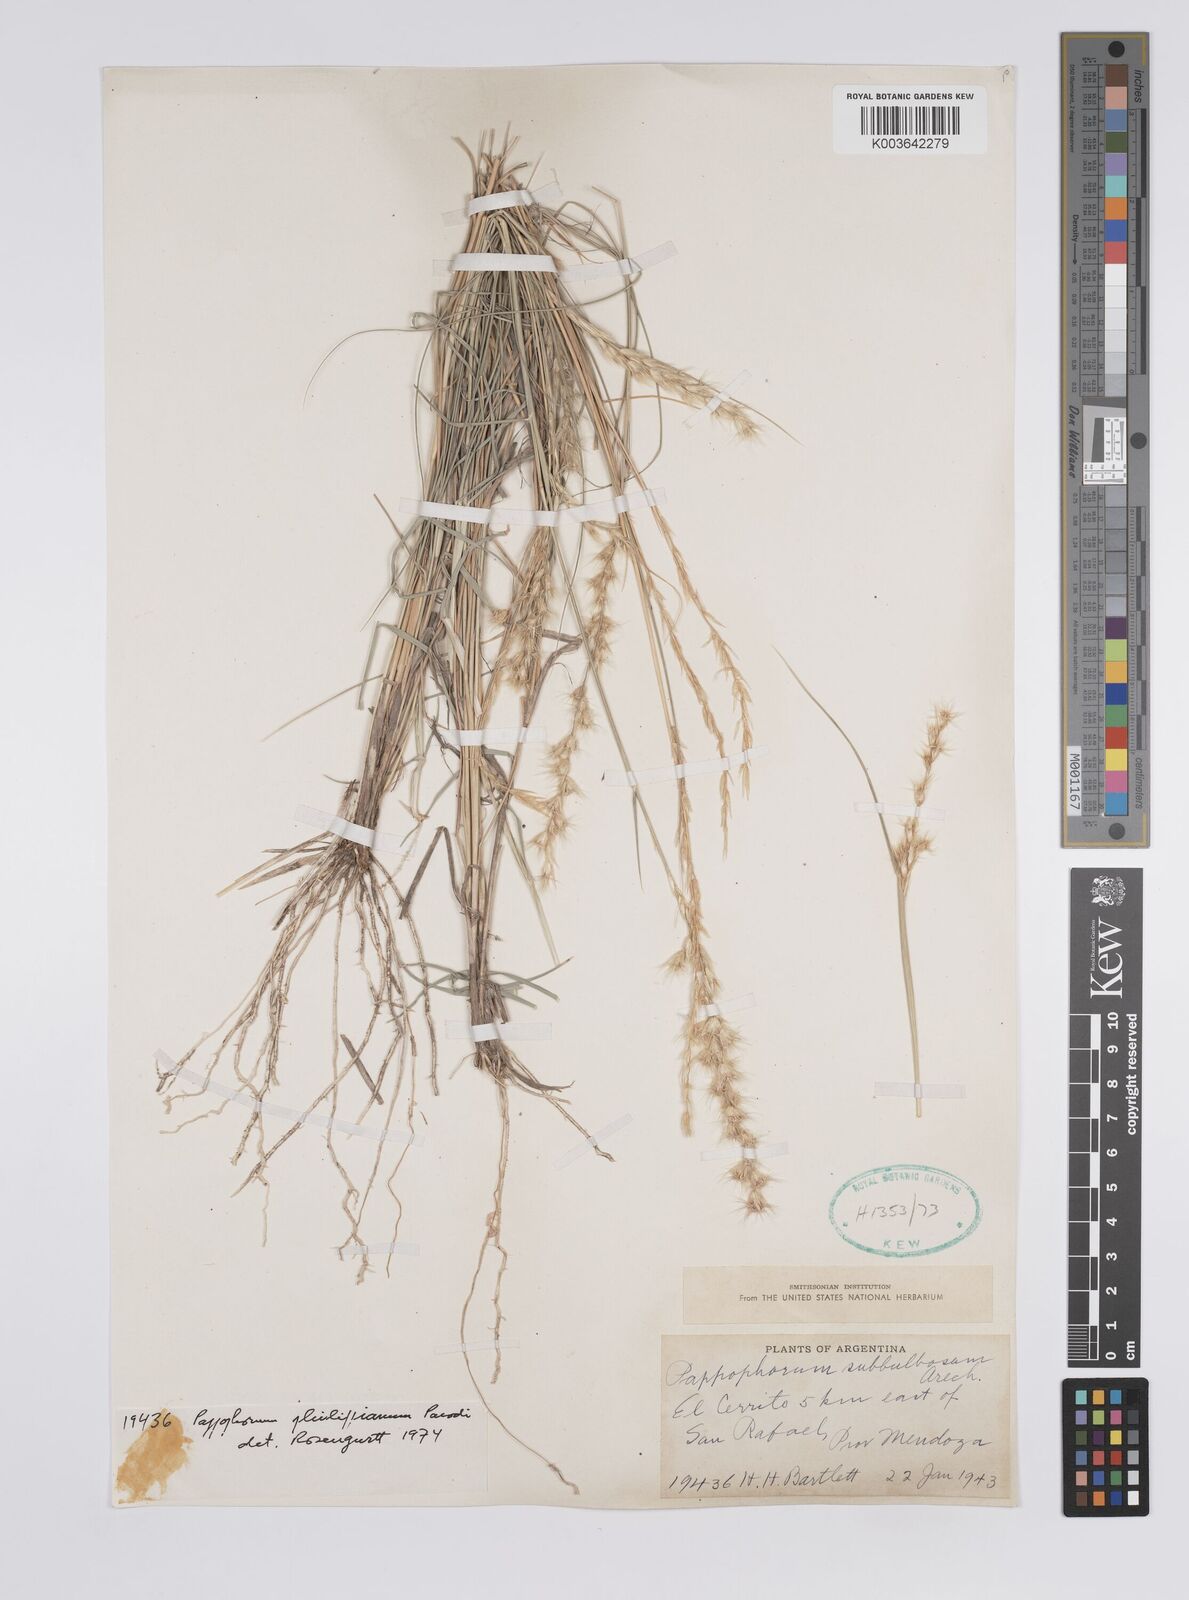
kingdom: Plantae
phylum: Tracheophyta
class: Liliopsida
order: Poales
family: Poaceae
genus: Pappophorum
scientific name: Pappophorum philippianum
